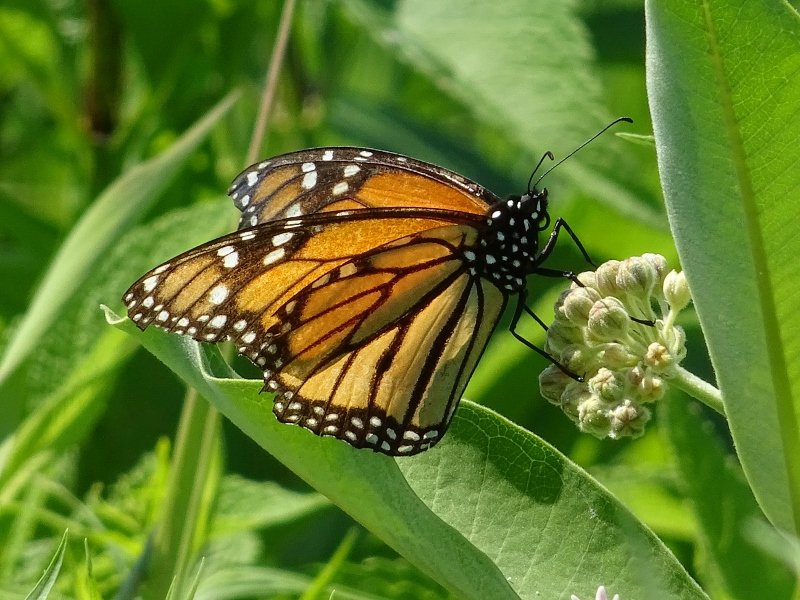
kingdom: Animalia
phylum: Arthropoda
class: Insecta
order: Lepidoptera
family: Nymphalidae
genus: Danaus
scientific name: Danaus plexippus
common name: Monarch
